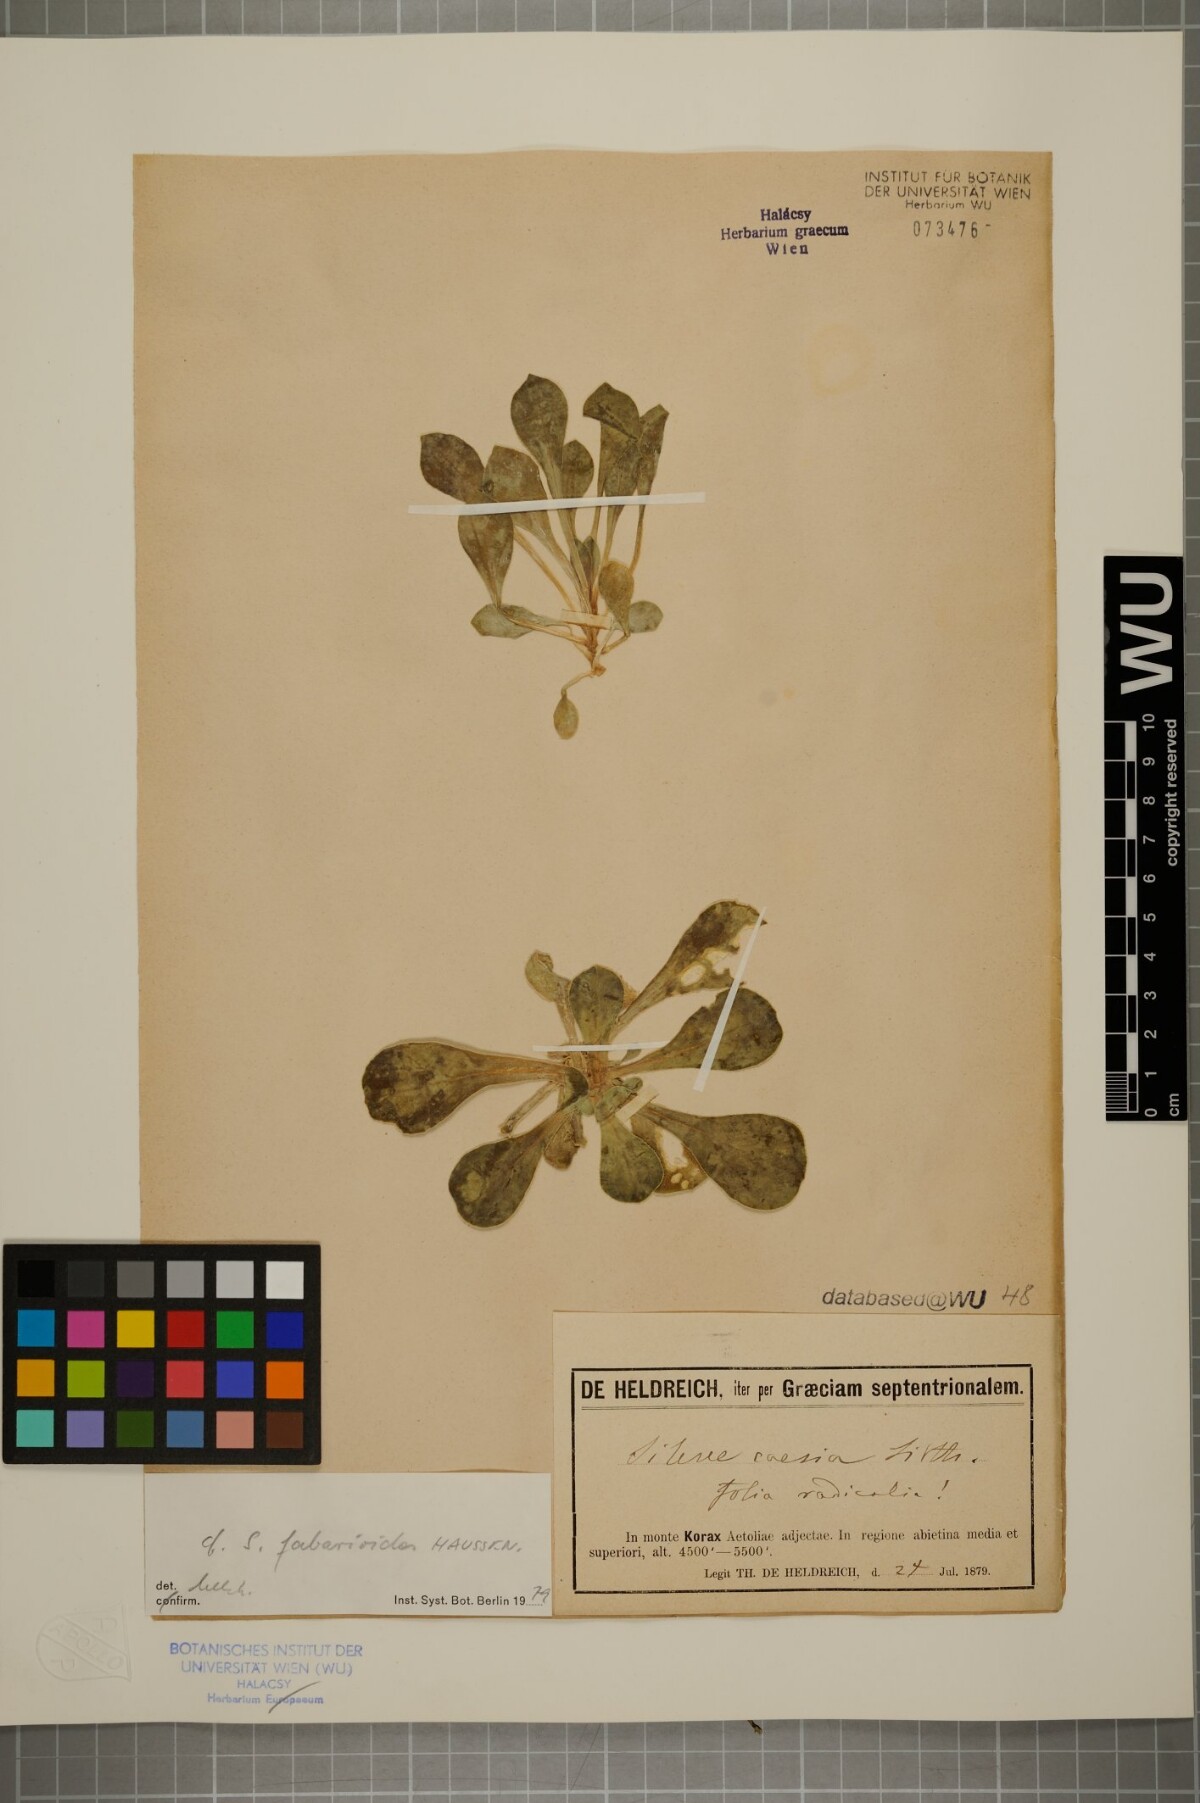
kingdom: Plantae
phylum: Tracheophyta
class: Magnoliopsida
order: Caryophyllales
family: Caryophyllaceae
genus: Silene
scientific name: Silene fabarioides
